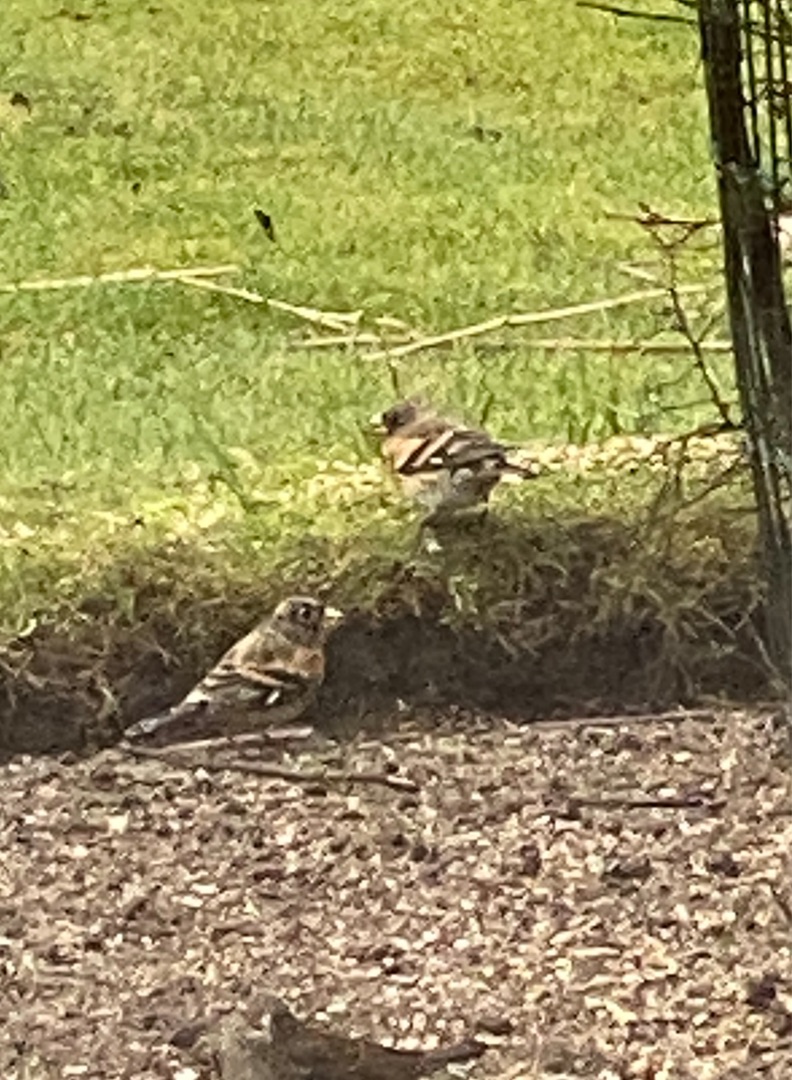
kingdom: Animalia
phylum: Chordata
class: Aves
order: Passeriformes
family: Fringillidae
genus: Fringilla
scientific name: Fringilla montifringilla
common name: Kvækerfinke
